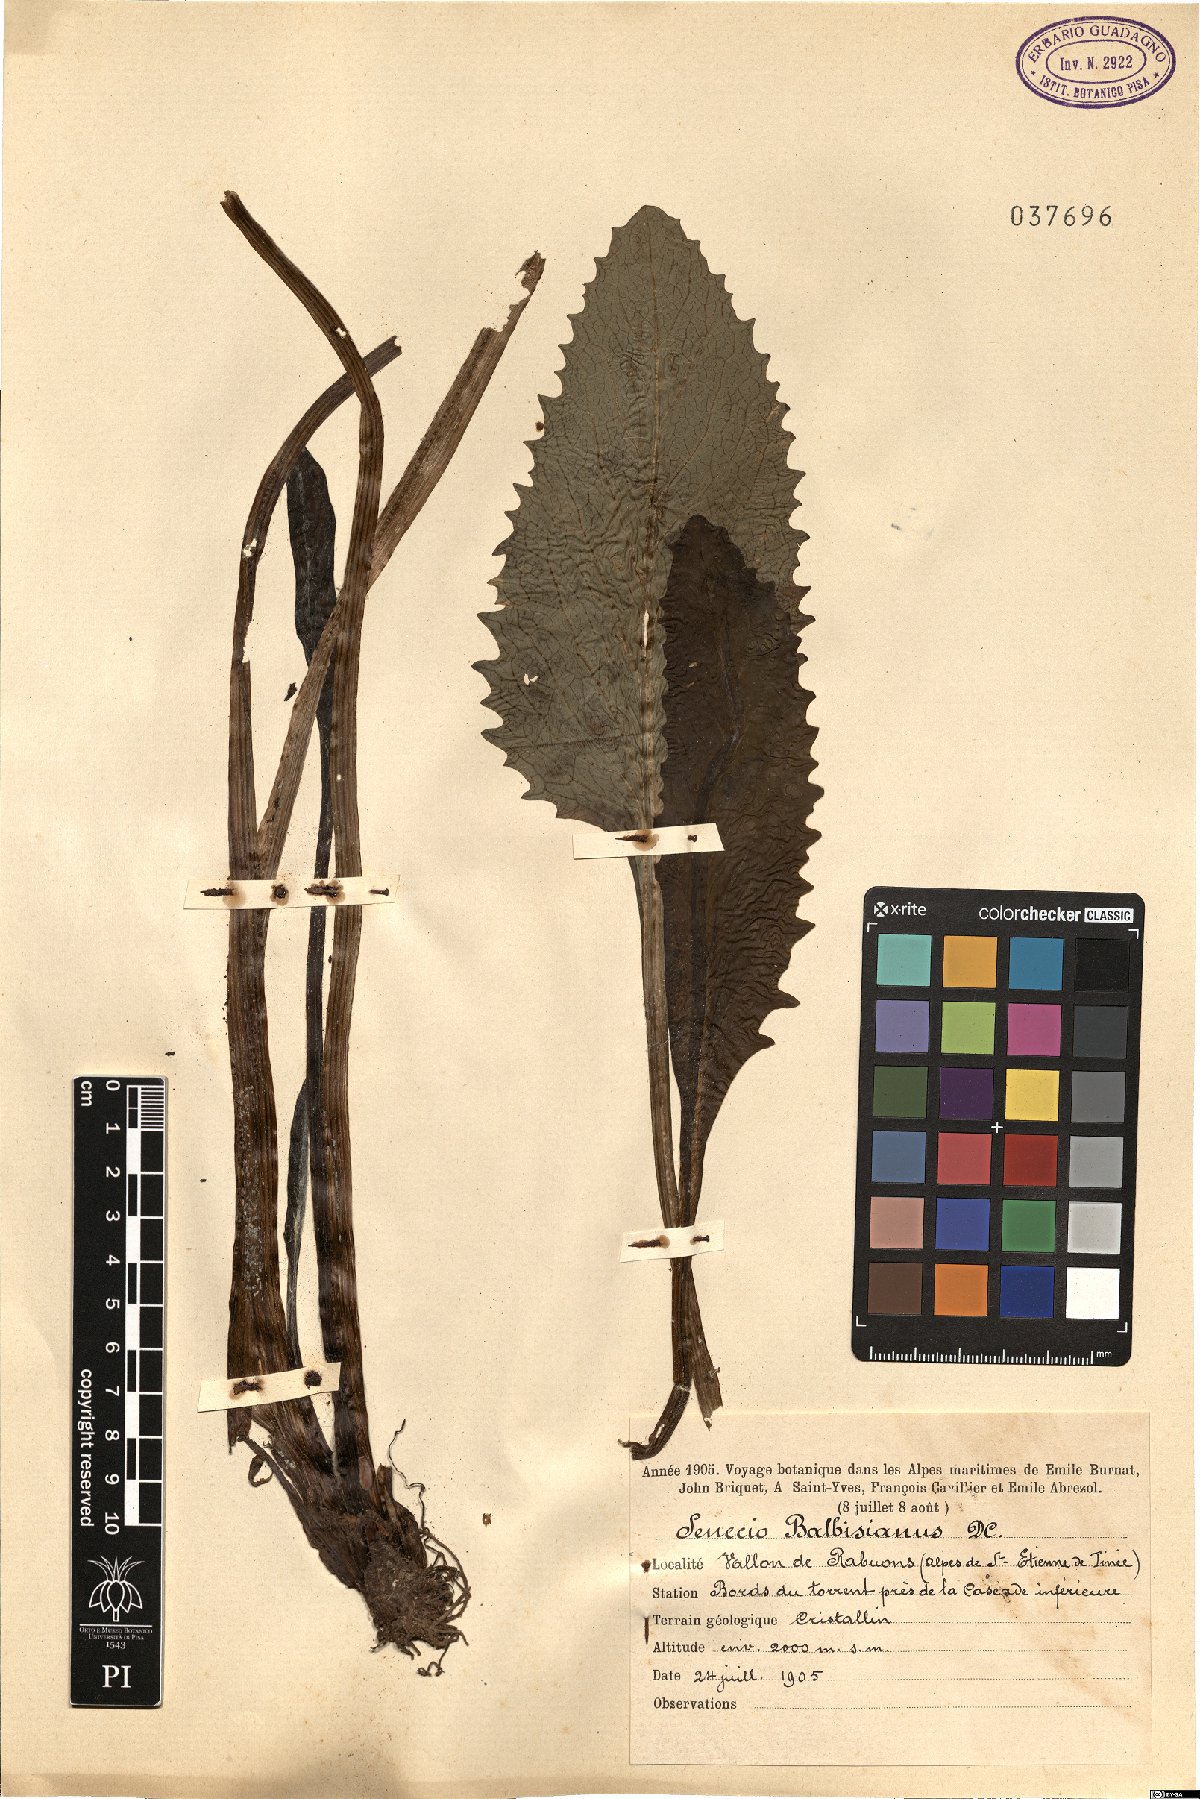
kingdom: Plantae
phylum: Tracheophyta
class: Magnoliopsida
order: Asterales
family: Asteraceae
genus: Tephroseris
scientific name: Tephroseris balbisiana
